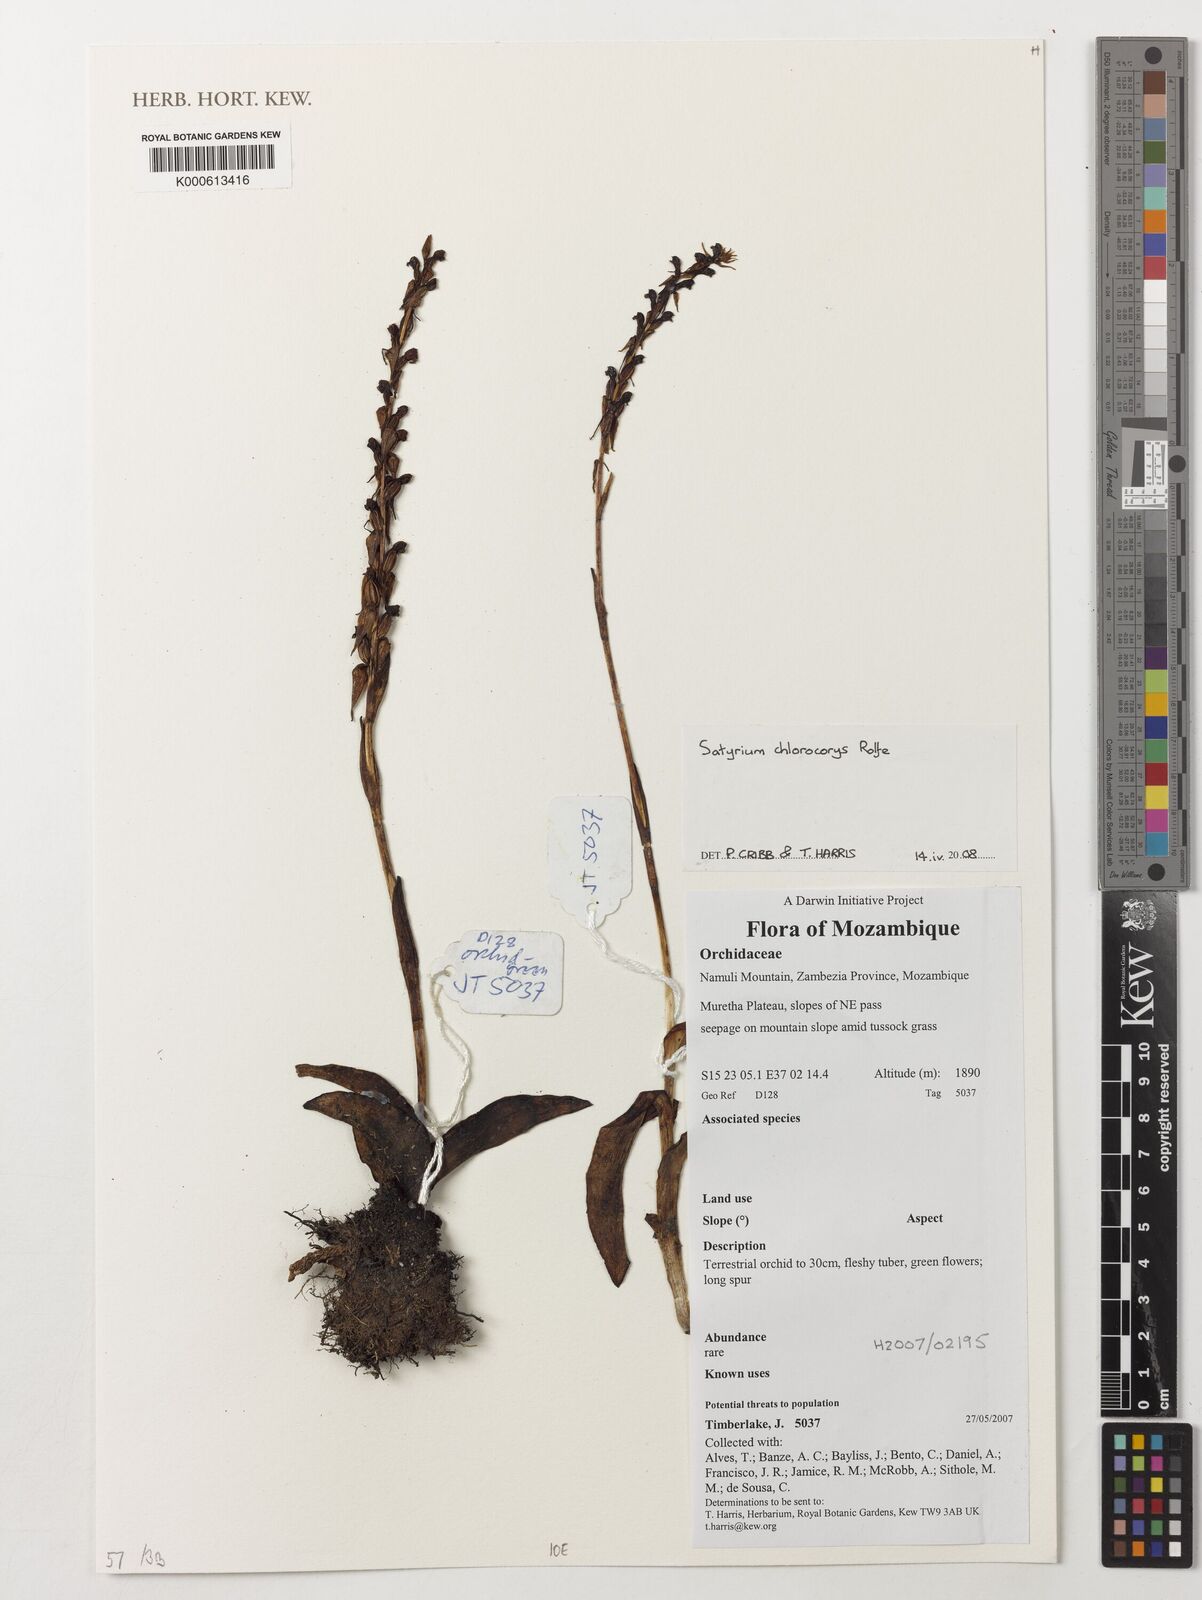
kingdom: Plantae
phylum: Tracheophyta
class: Liliopsida
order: Asparagales
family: Orchidaceae
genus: Satyrium
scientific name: Satyrium
